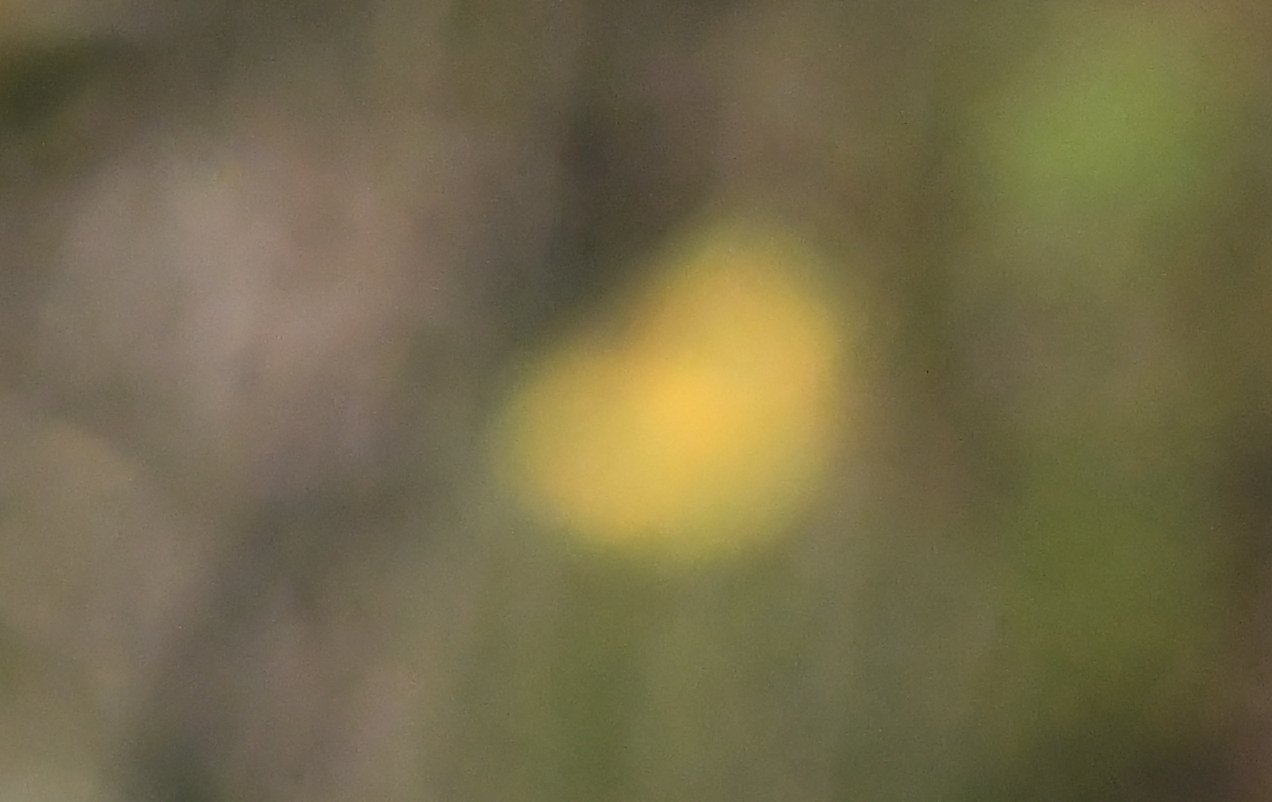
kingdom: Animalia
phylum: Arthropoda
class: Insecta
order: Lepidoptera
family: Pieridae
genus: Colias
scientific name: Colias eurytheme
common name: Orange Sulphur
